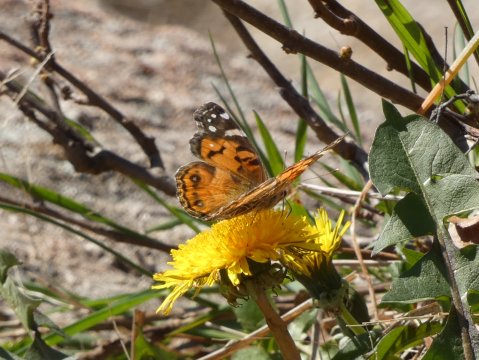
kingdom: Animalia
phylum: Arthropoda
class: Insecta
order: Lepidoptera
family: Nymphalidae
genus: Vanessa
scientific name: Vanessa virginiensis
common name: American Lady
